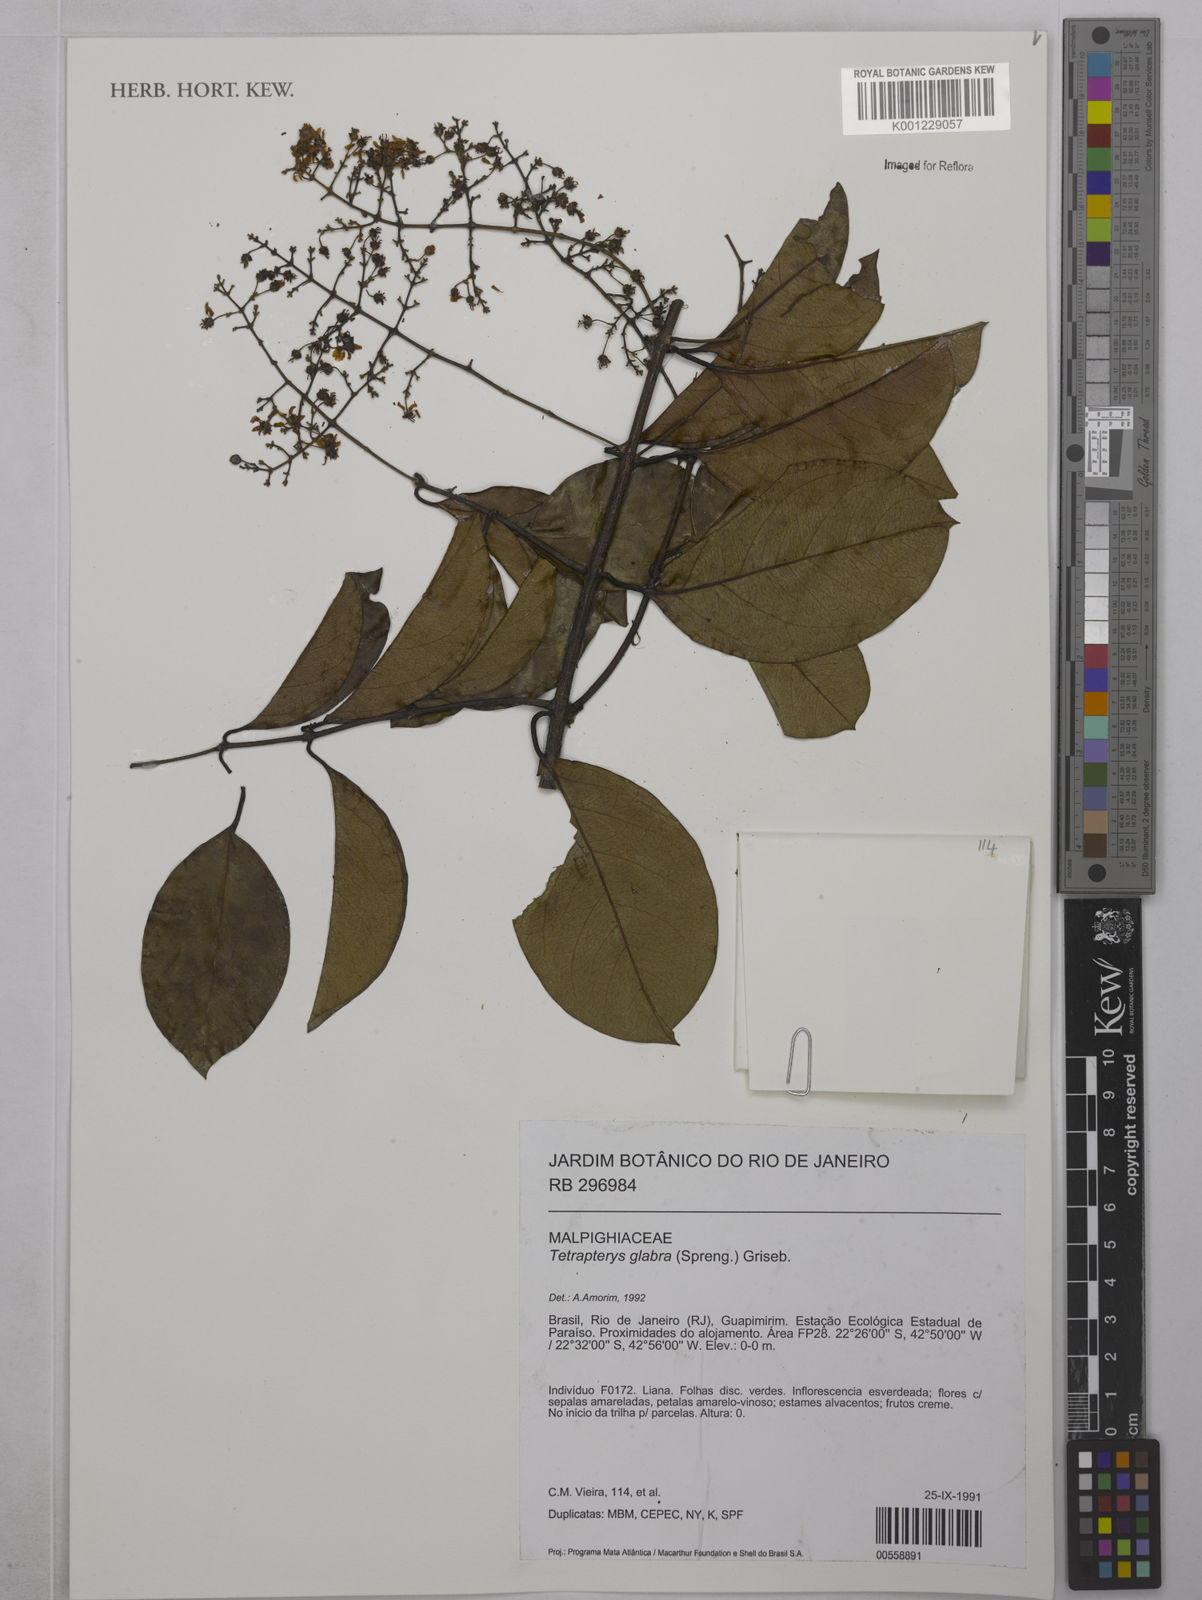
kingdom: Plantae
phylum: Tracheophyta
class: Magnoliopsida
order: Malpighiales
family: Malpighiaceae
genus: Niedenzuella
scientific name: Niedenzuella glabra
